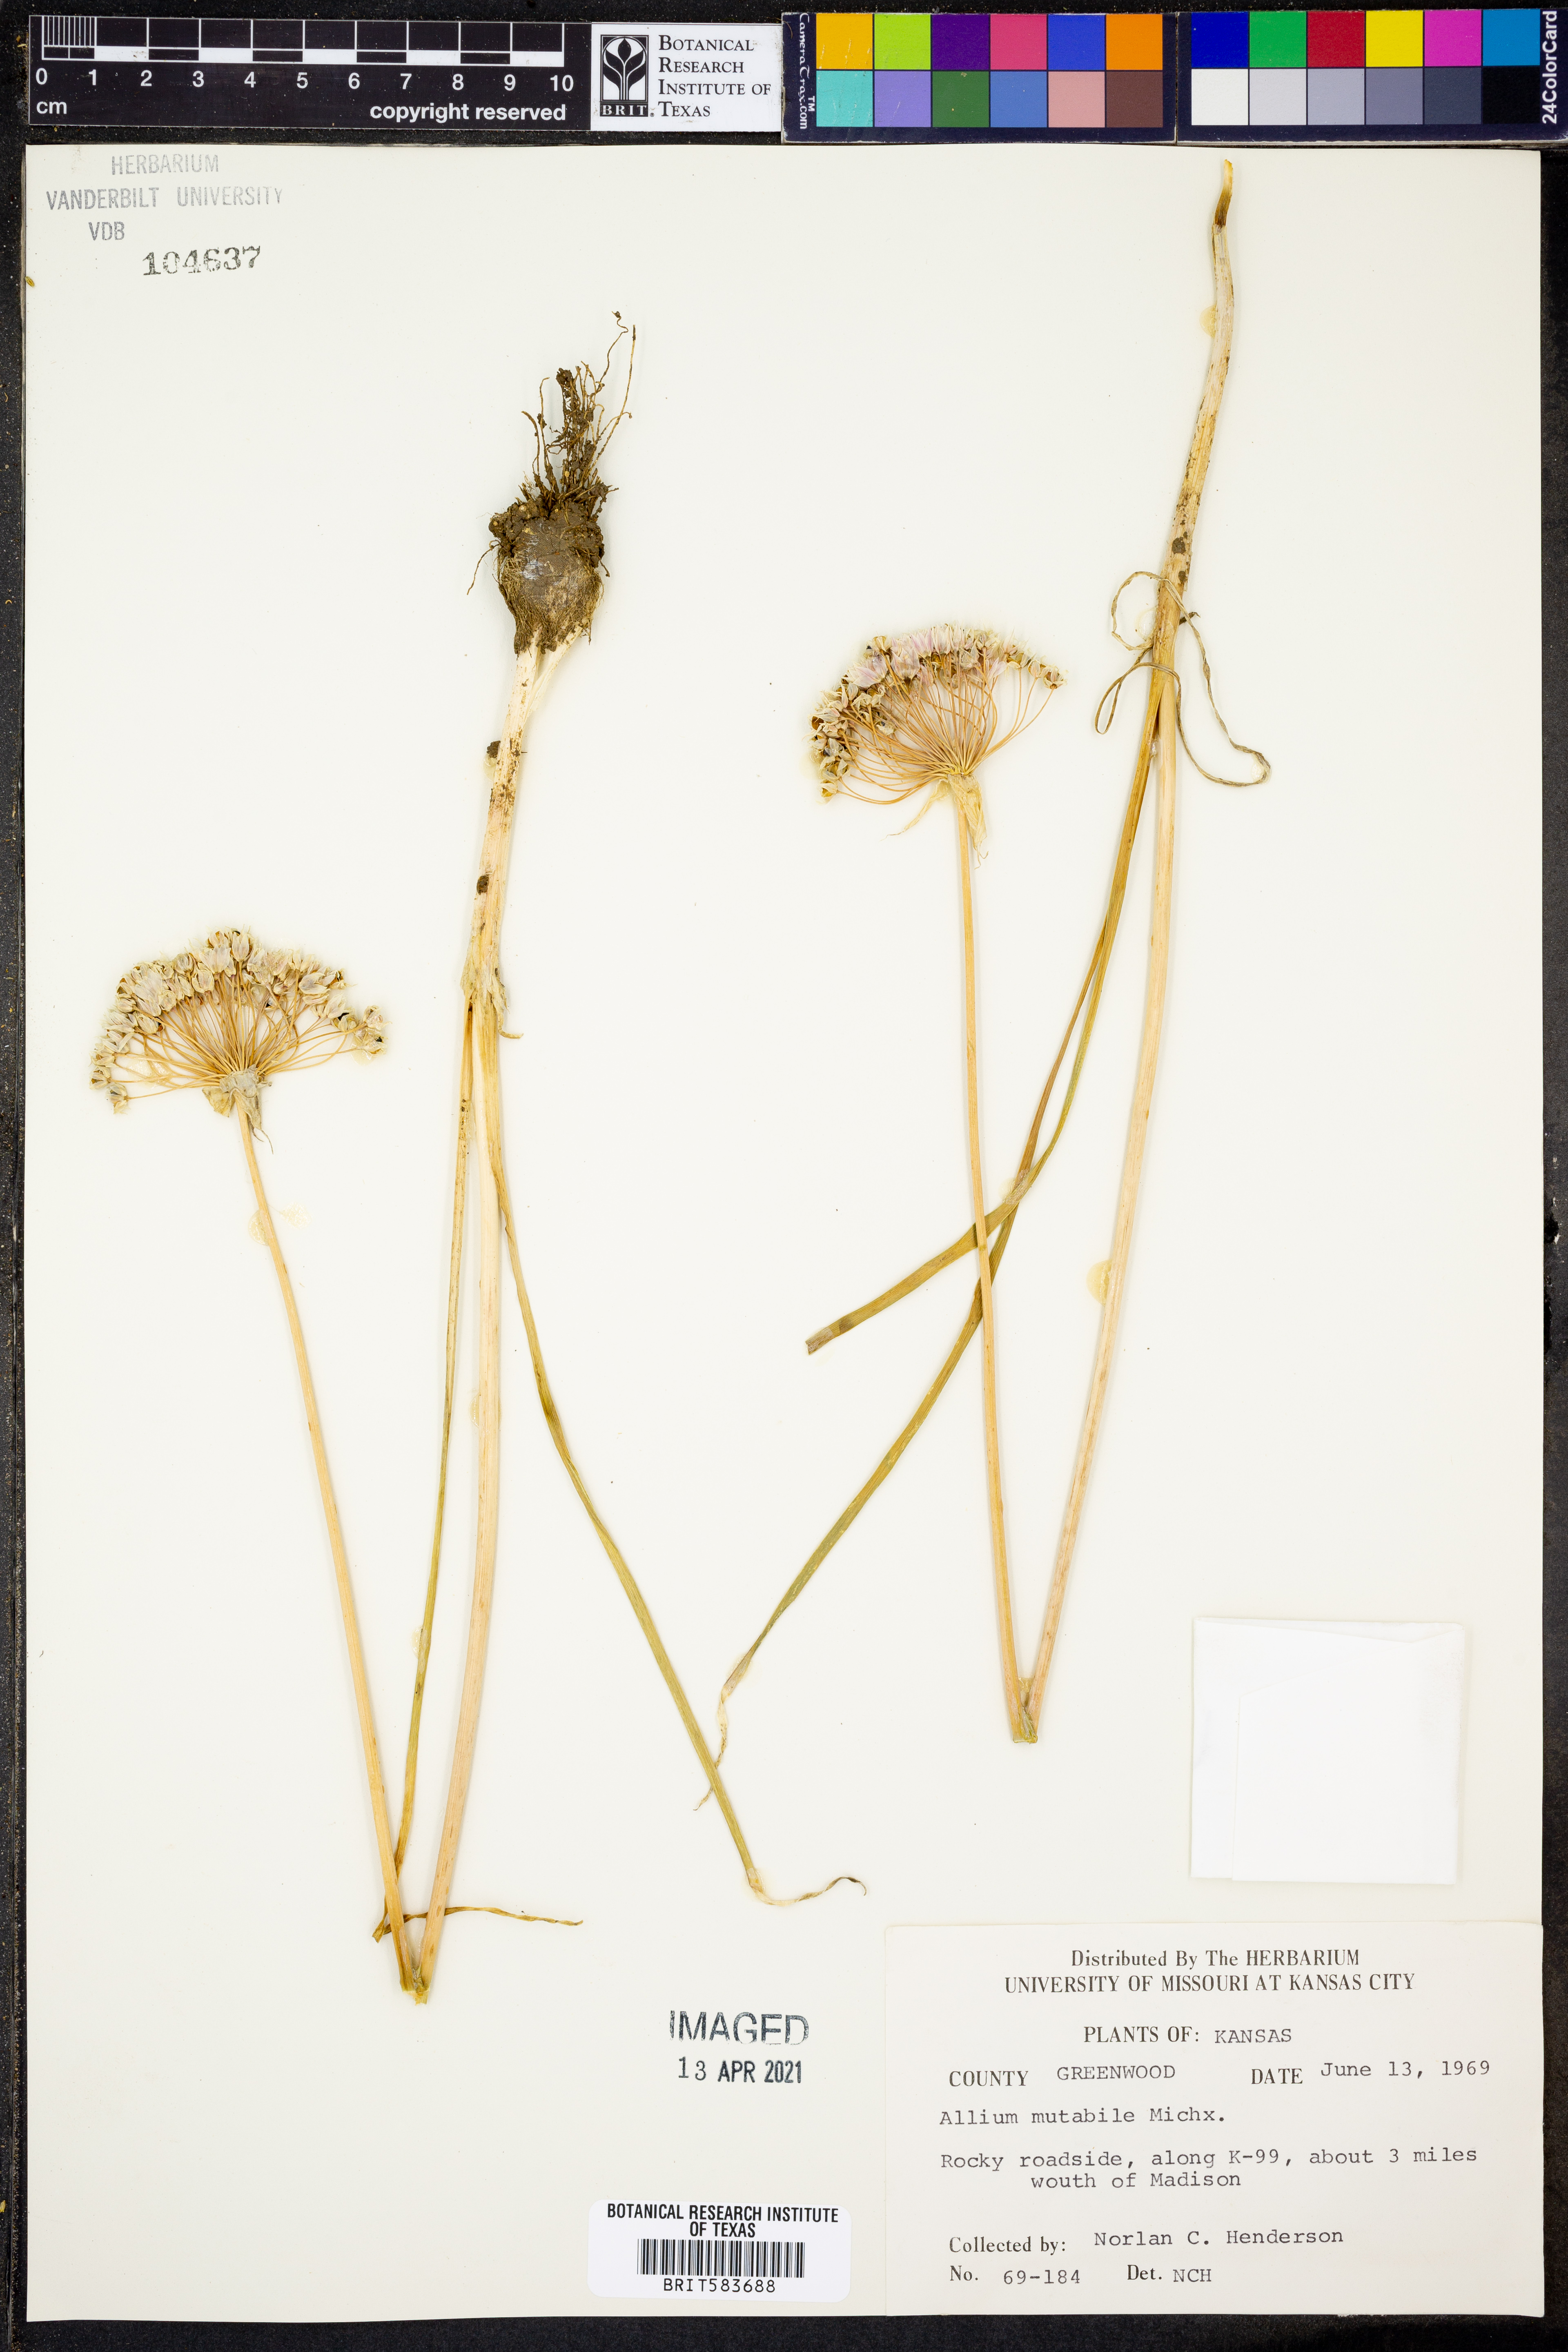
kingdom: Plantae
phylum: Tracheophyta
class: Liliopsida
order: Asparagales
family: Amaryllidaceae
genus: Allium
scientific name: Allium canadense
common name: Meadow garlic
